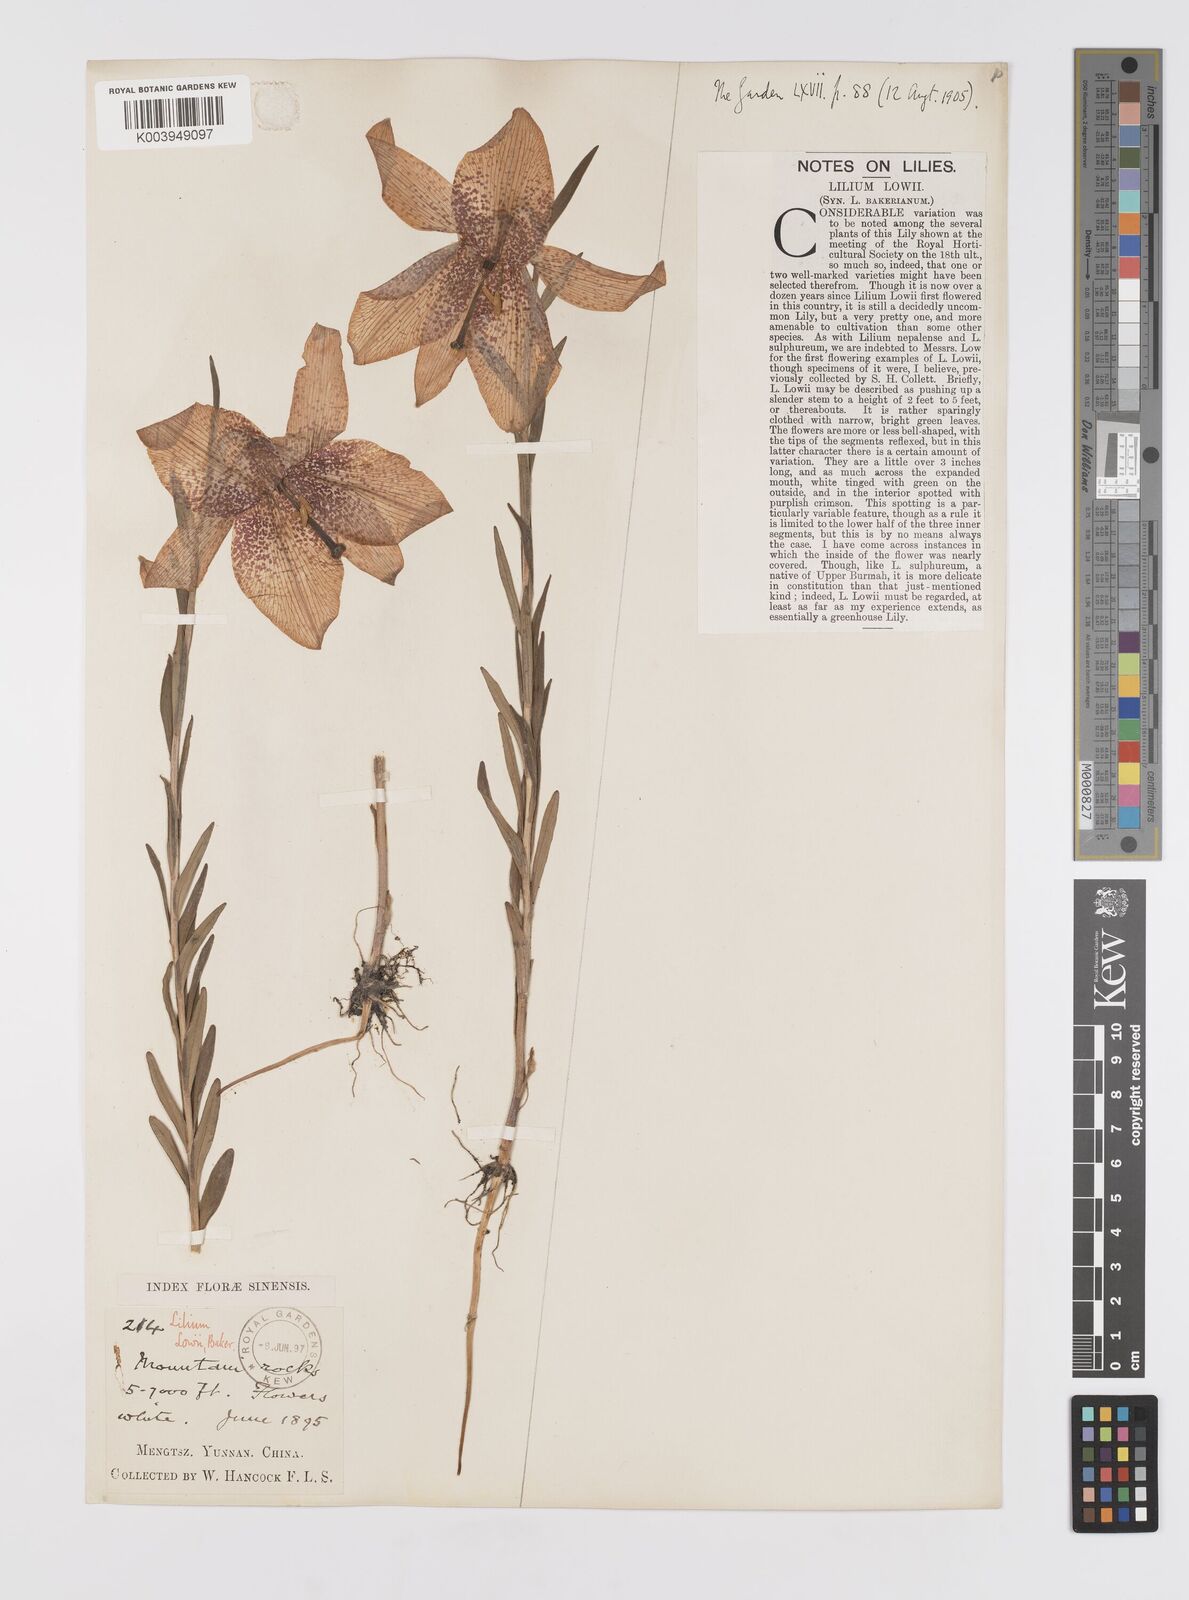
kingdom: Plantae
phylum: Tracheophyta
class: Liliopsida
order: Liliales
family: Liliaceae
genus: Lilium
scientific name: Lilium bakerianum
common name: Baker's lily
